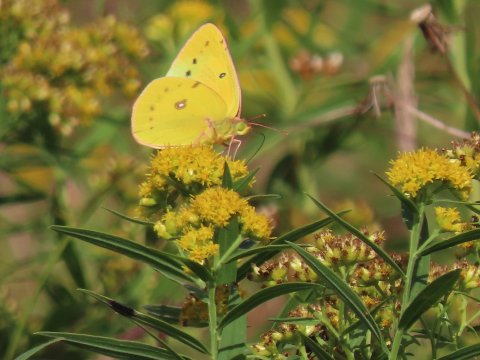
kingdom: Animalia
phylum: Arthropoda
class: Insecta
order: Lepidoptera
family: Pieridae
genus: Colias
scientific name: Colias eurytheme
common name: Orange Sulphur
